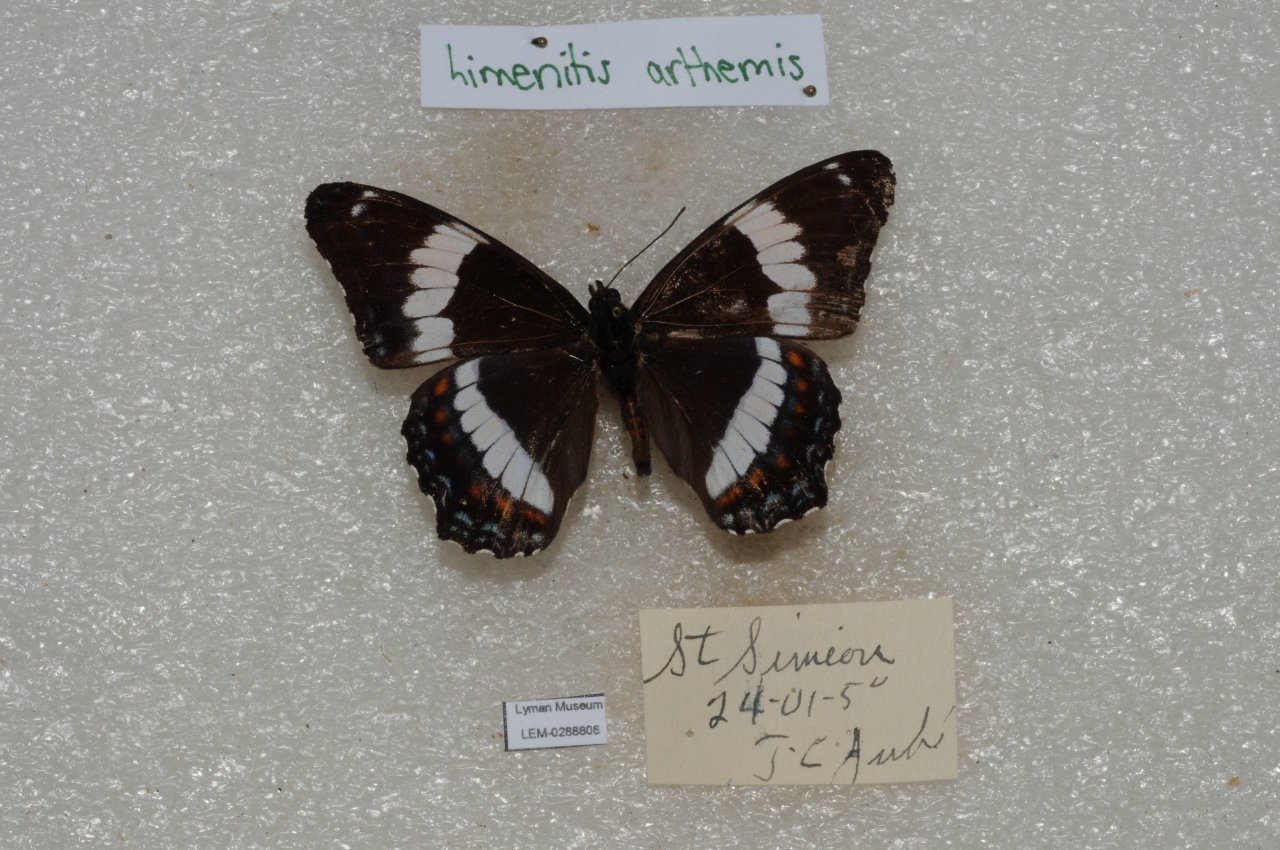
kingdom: Animalia
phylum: Arthropoda
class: Insecta
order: Lepidoptera
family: Nymphalidae
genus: Limenitis
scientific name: Limenitis arthemis
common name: Red-spotted Admiral
